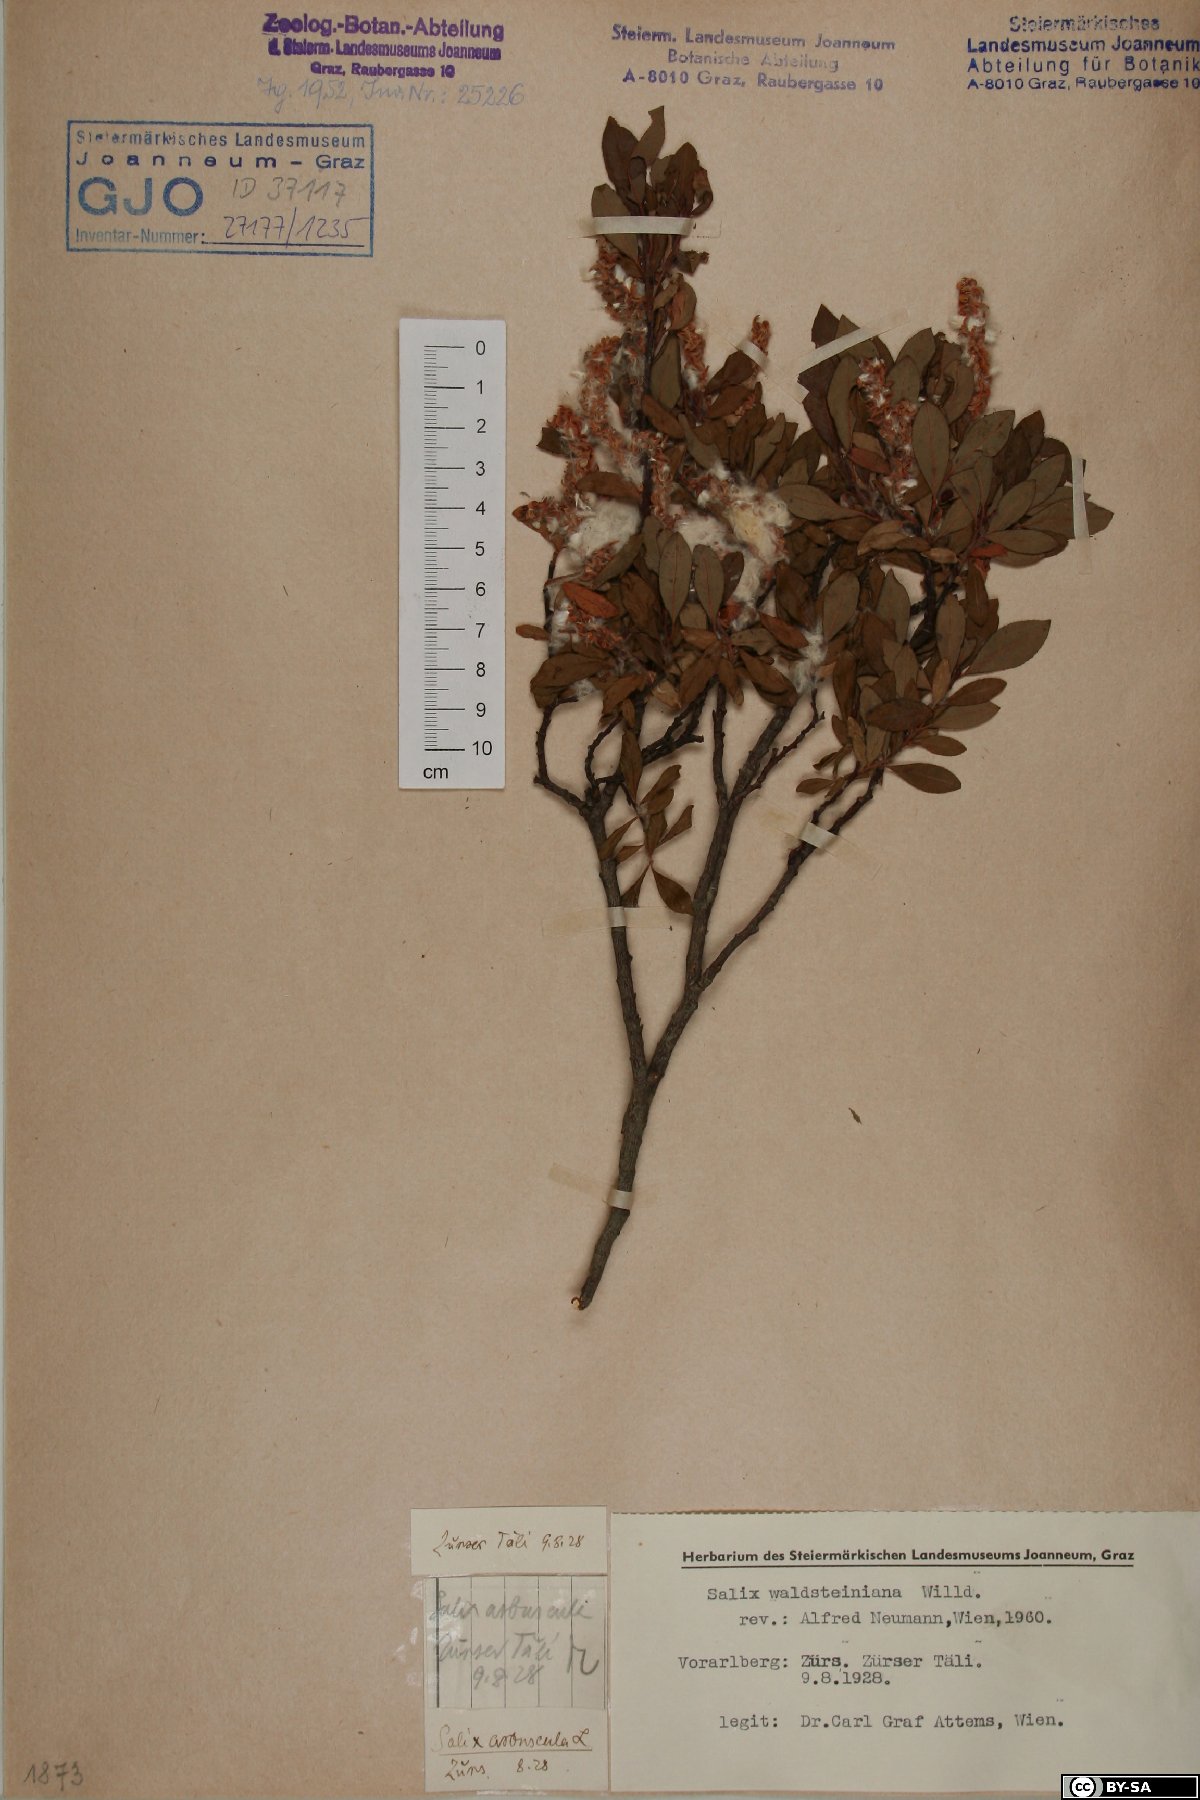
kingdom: Plantae
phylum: Tracheophyta
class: Magnoliopsida
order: Malpighiales
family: Salicaceae
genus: Salix
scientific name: Salix waldsteiniana
